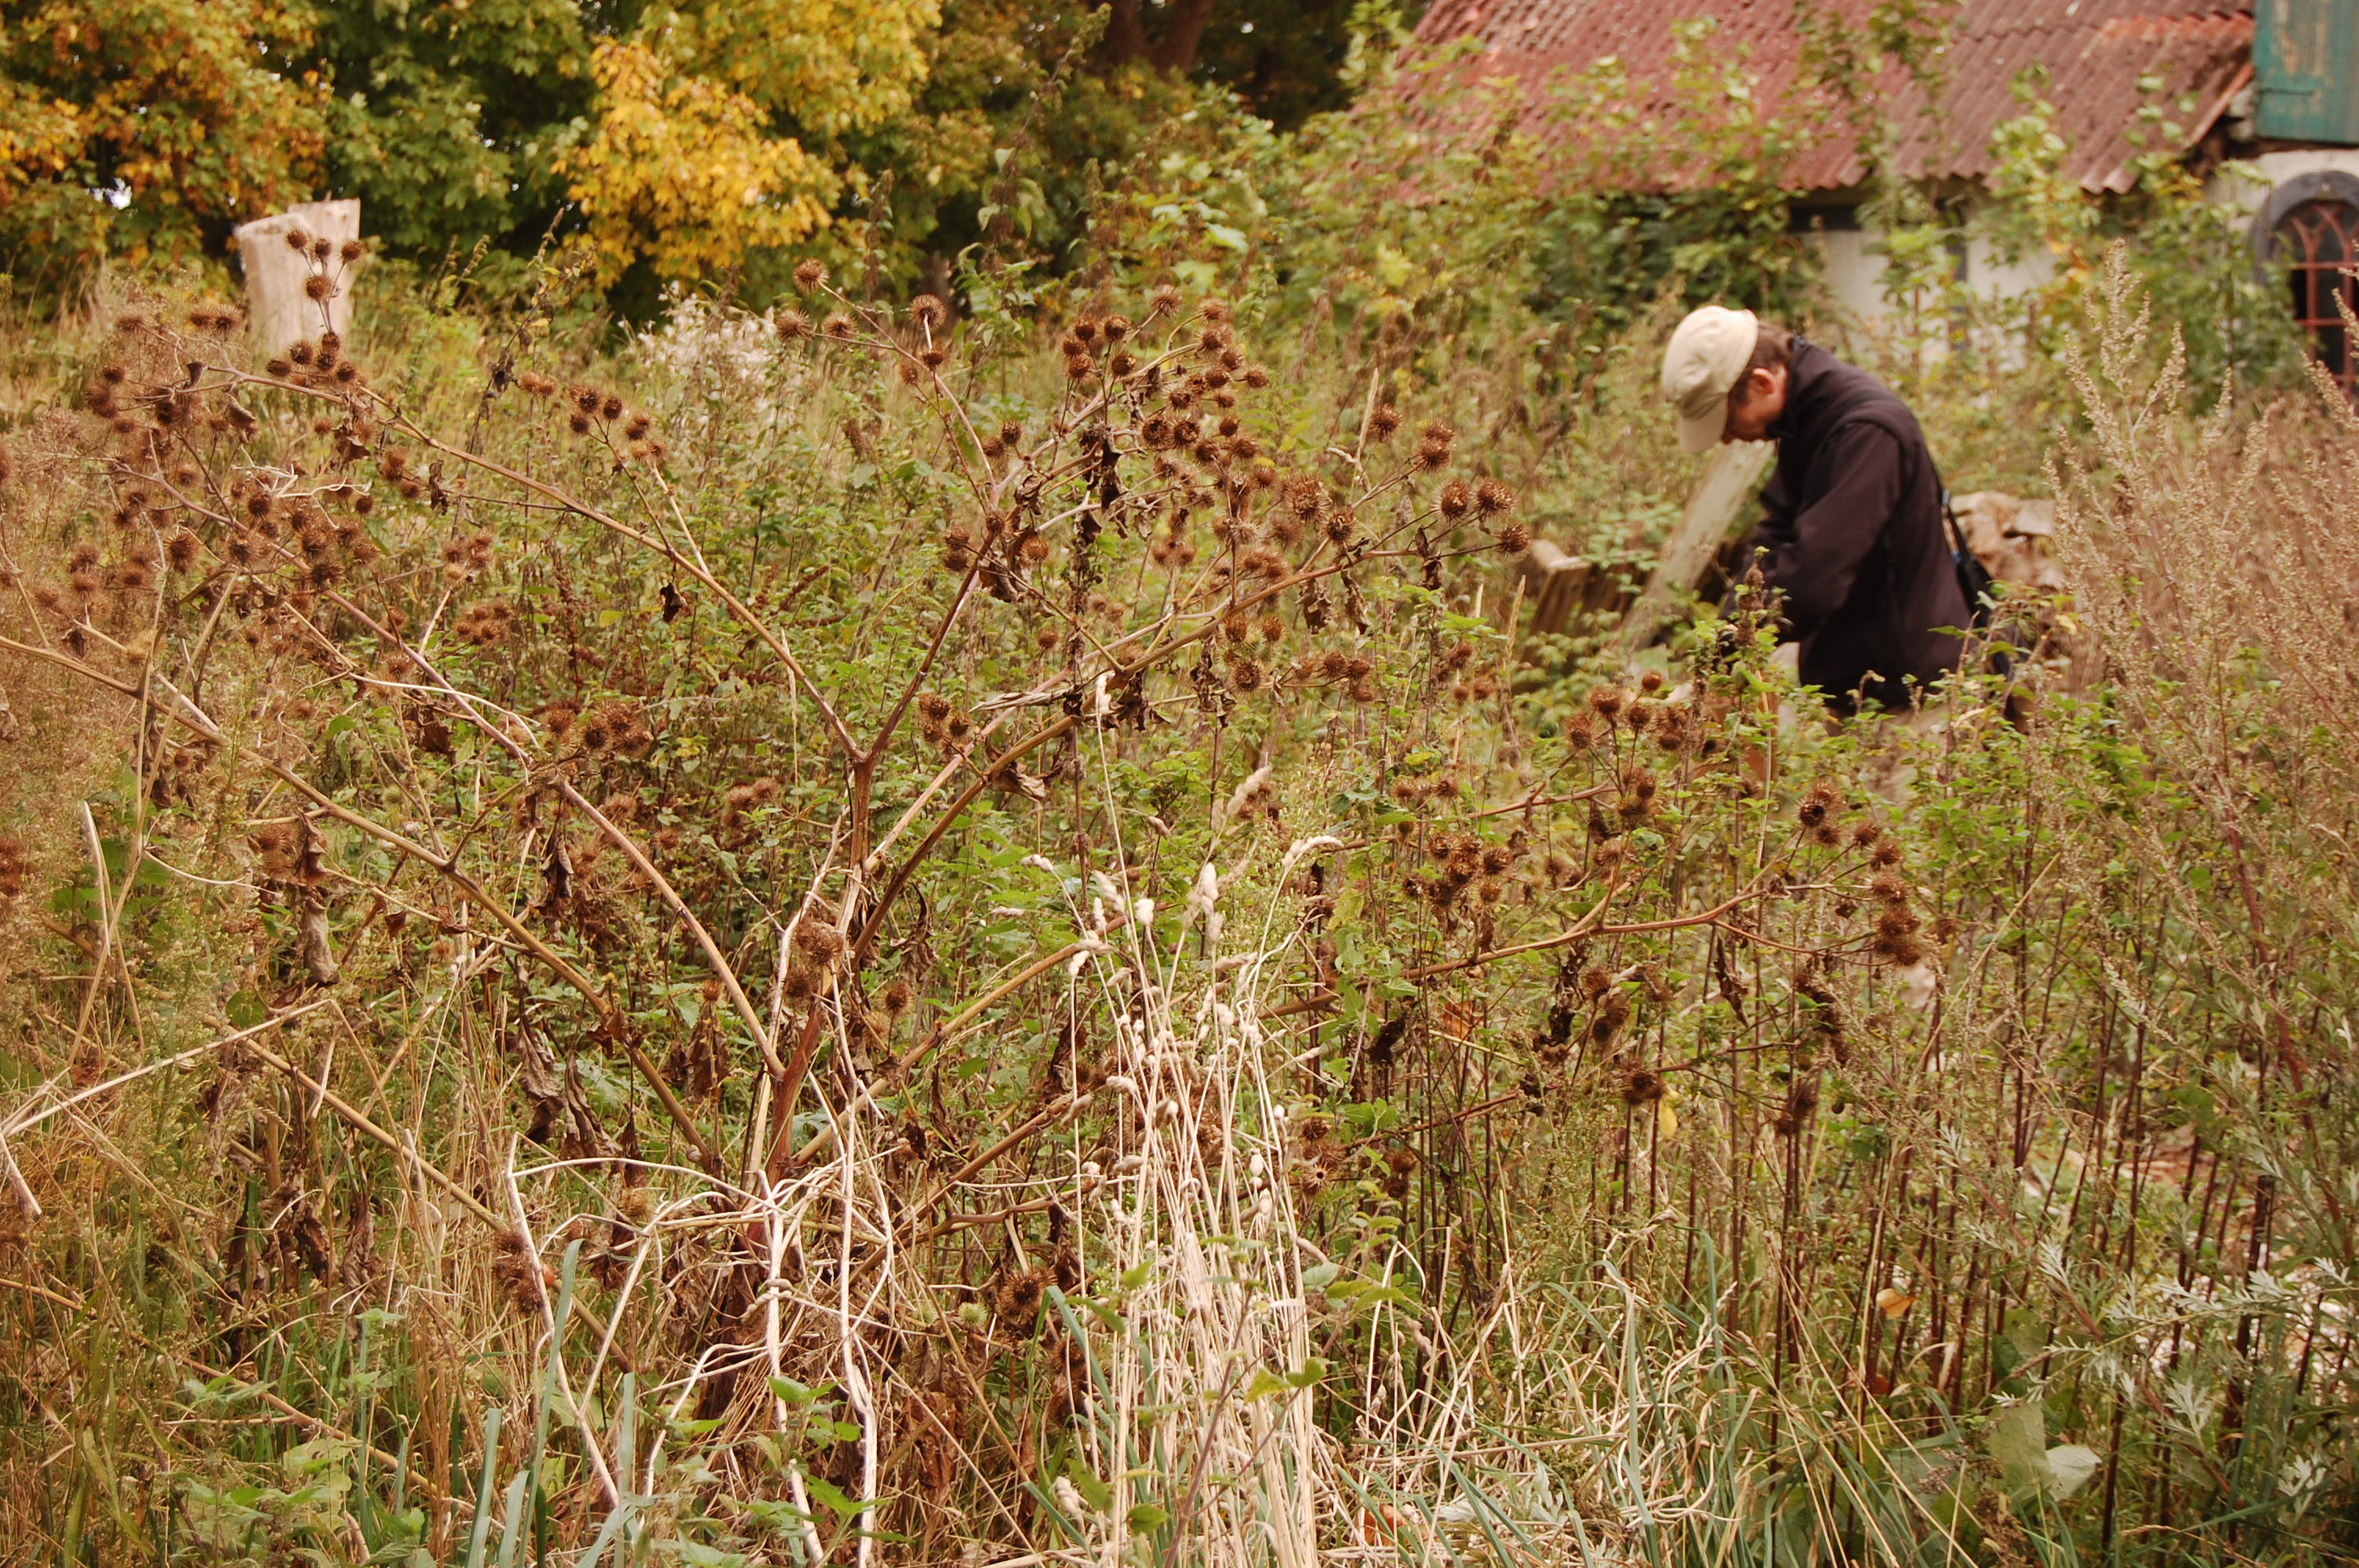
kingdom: Plantae
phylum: Tracheophyta
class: Magnoliopsida
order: Asterales
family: Asteraceae
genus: Arctium
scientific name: Arctium lappa
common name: Greater burdock
